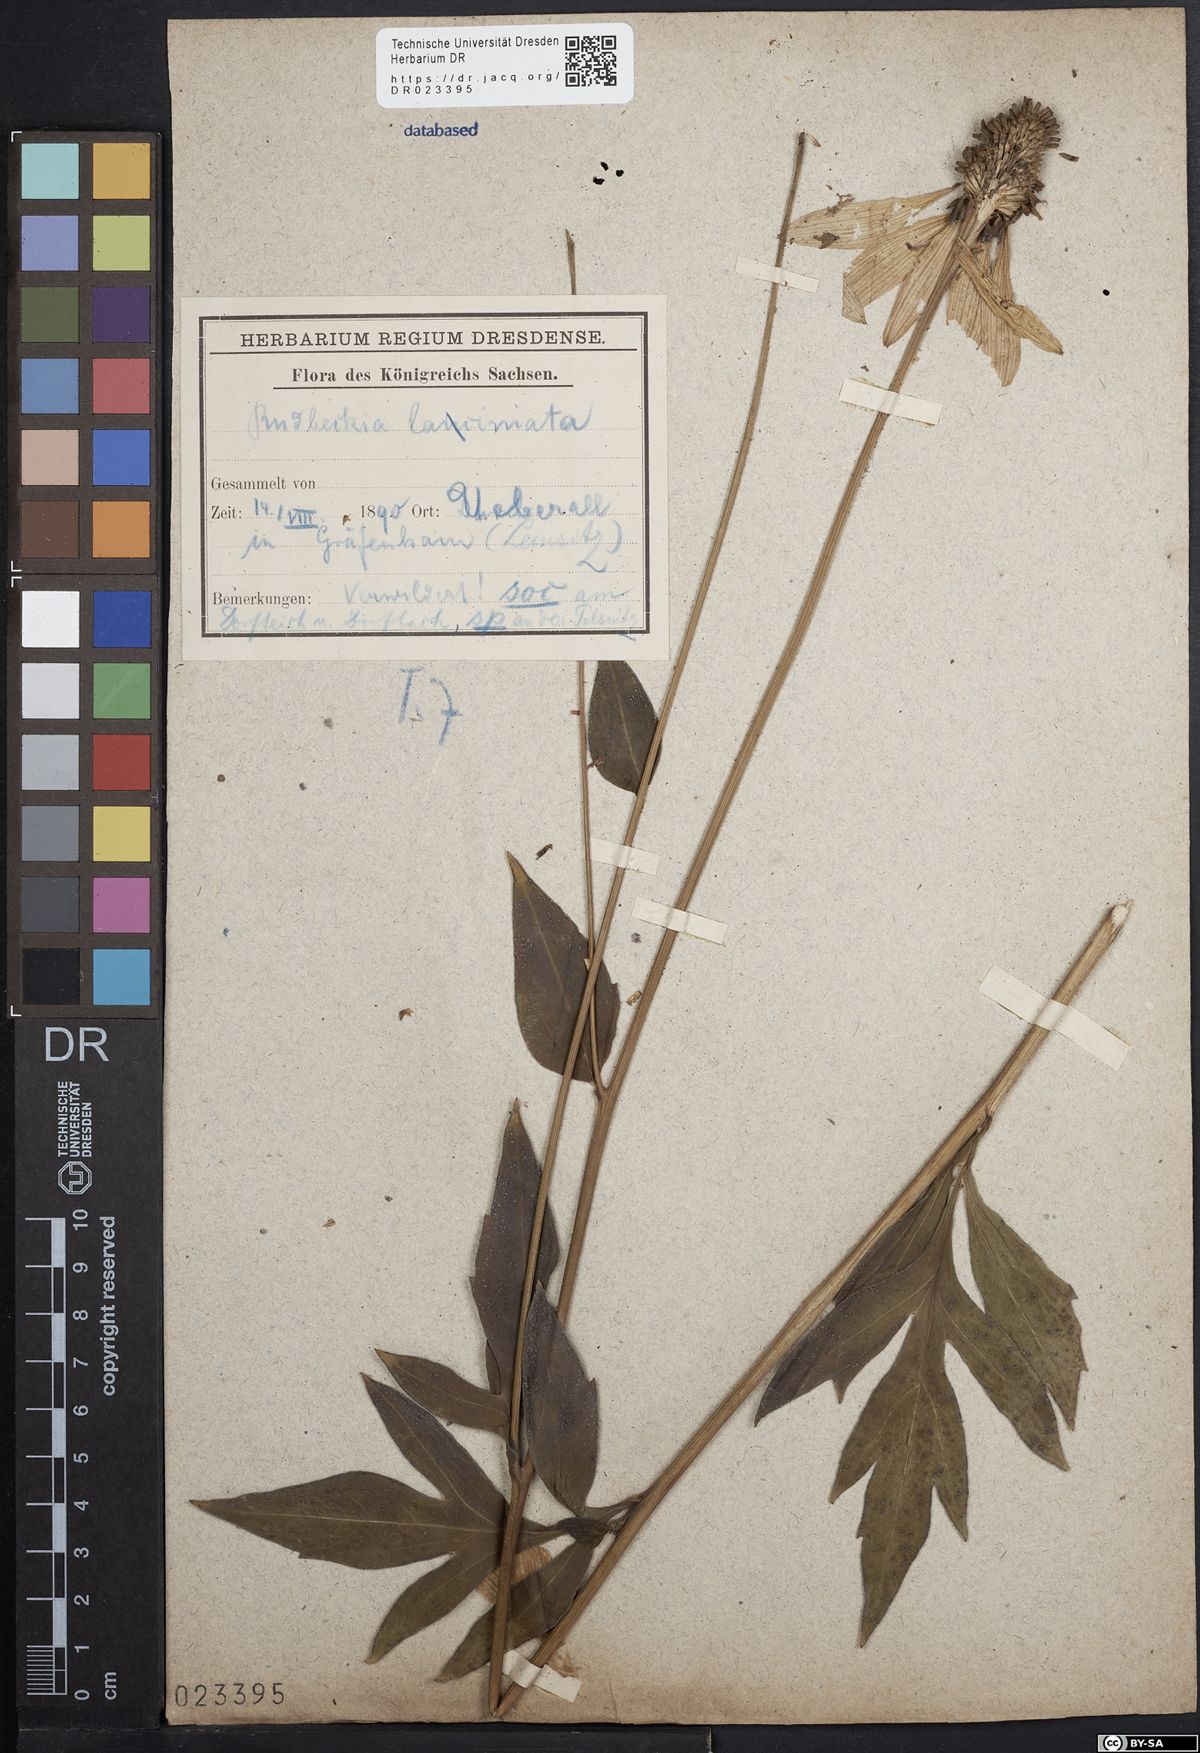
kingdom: Plantae
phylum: Tracheophyta
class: Magnoliopsida
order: Asterales
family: Asteraceae
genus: Rudbeckia
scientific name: Rudbeckia laciniata
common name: Coneflower
